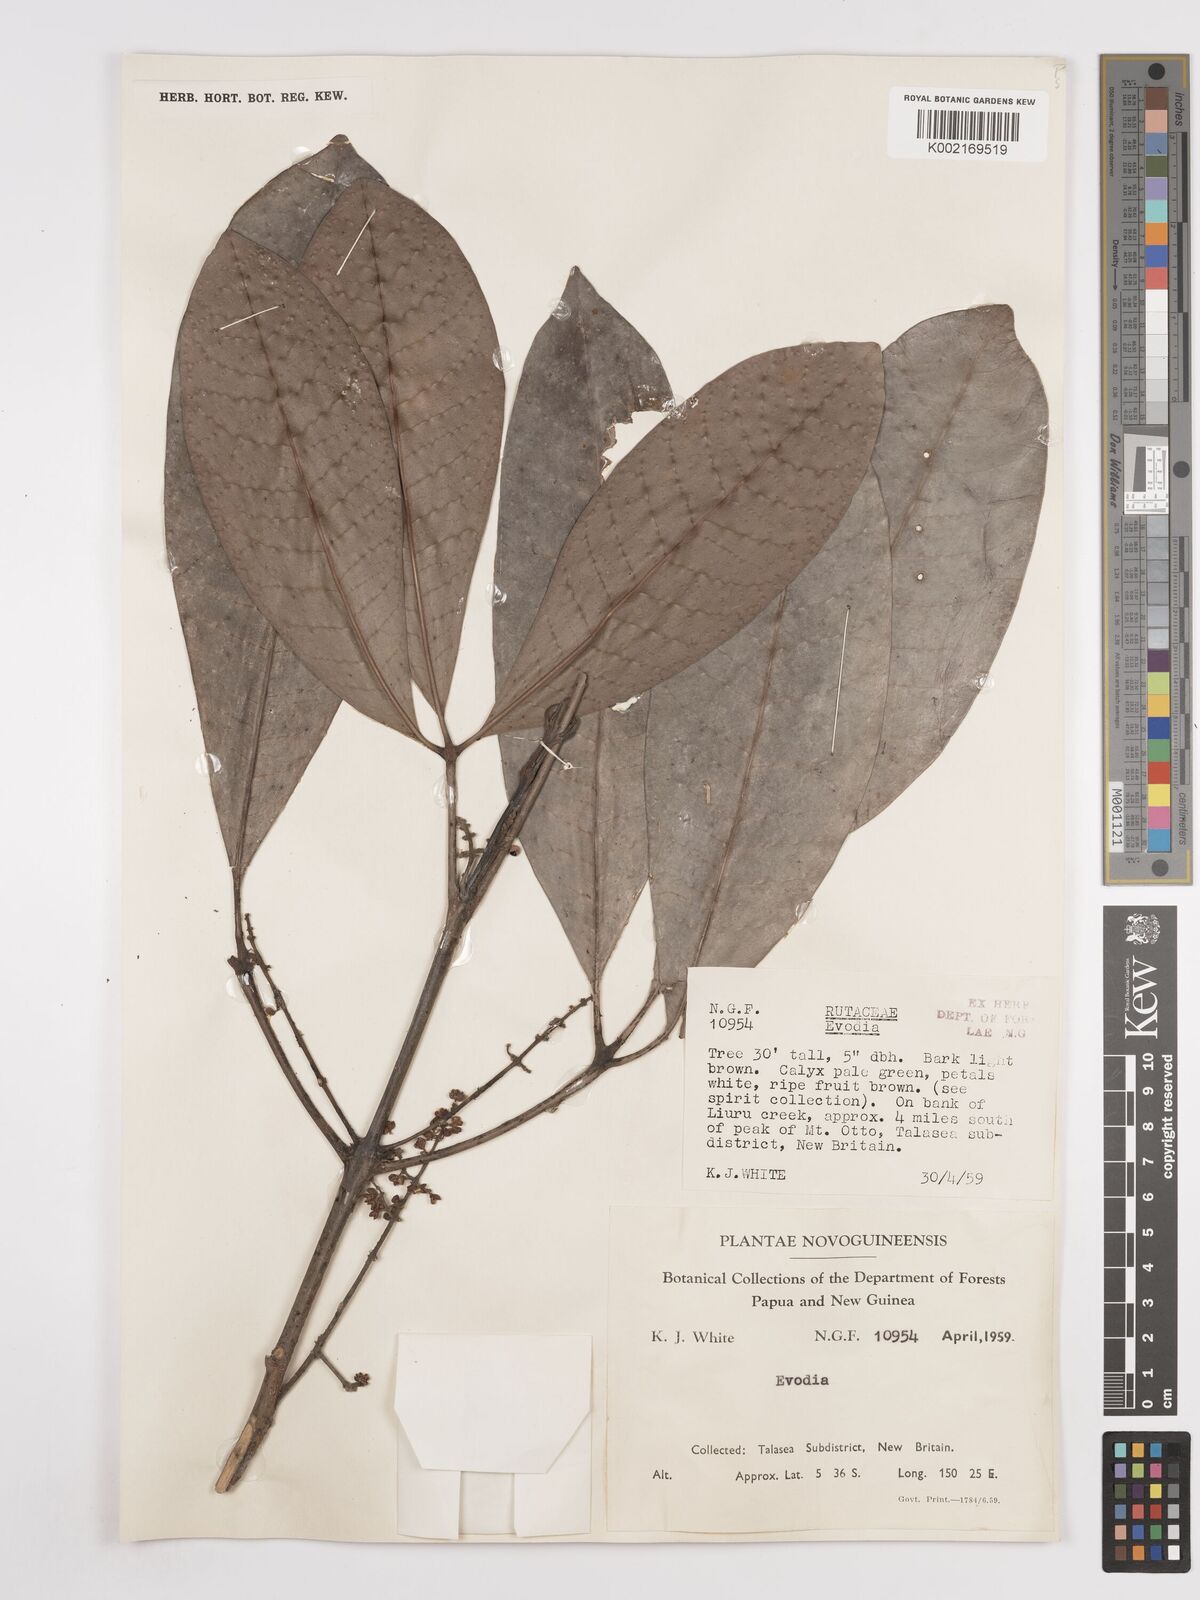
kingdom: Plantae
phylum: Tracheophyta
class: Magnoliopsida
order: Sapindales
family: Rutaceae
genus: Euodia
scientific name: Euodia
